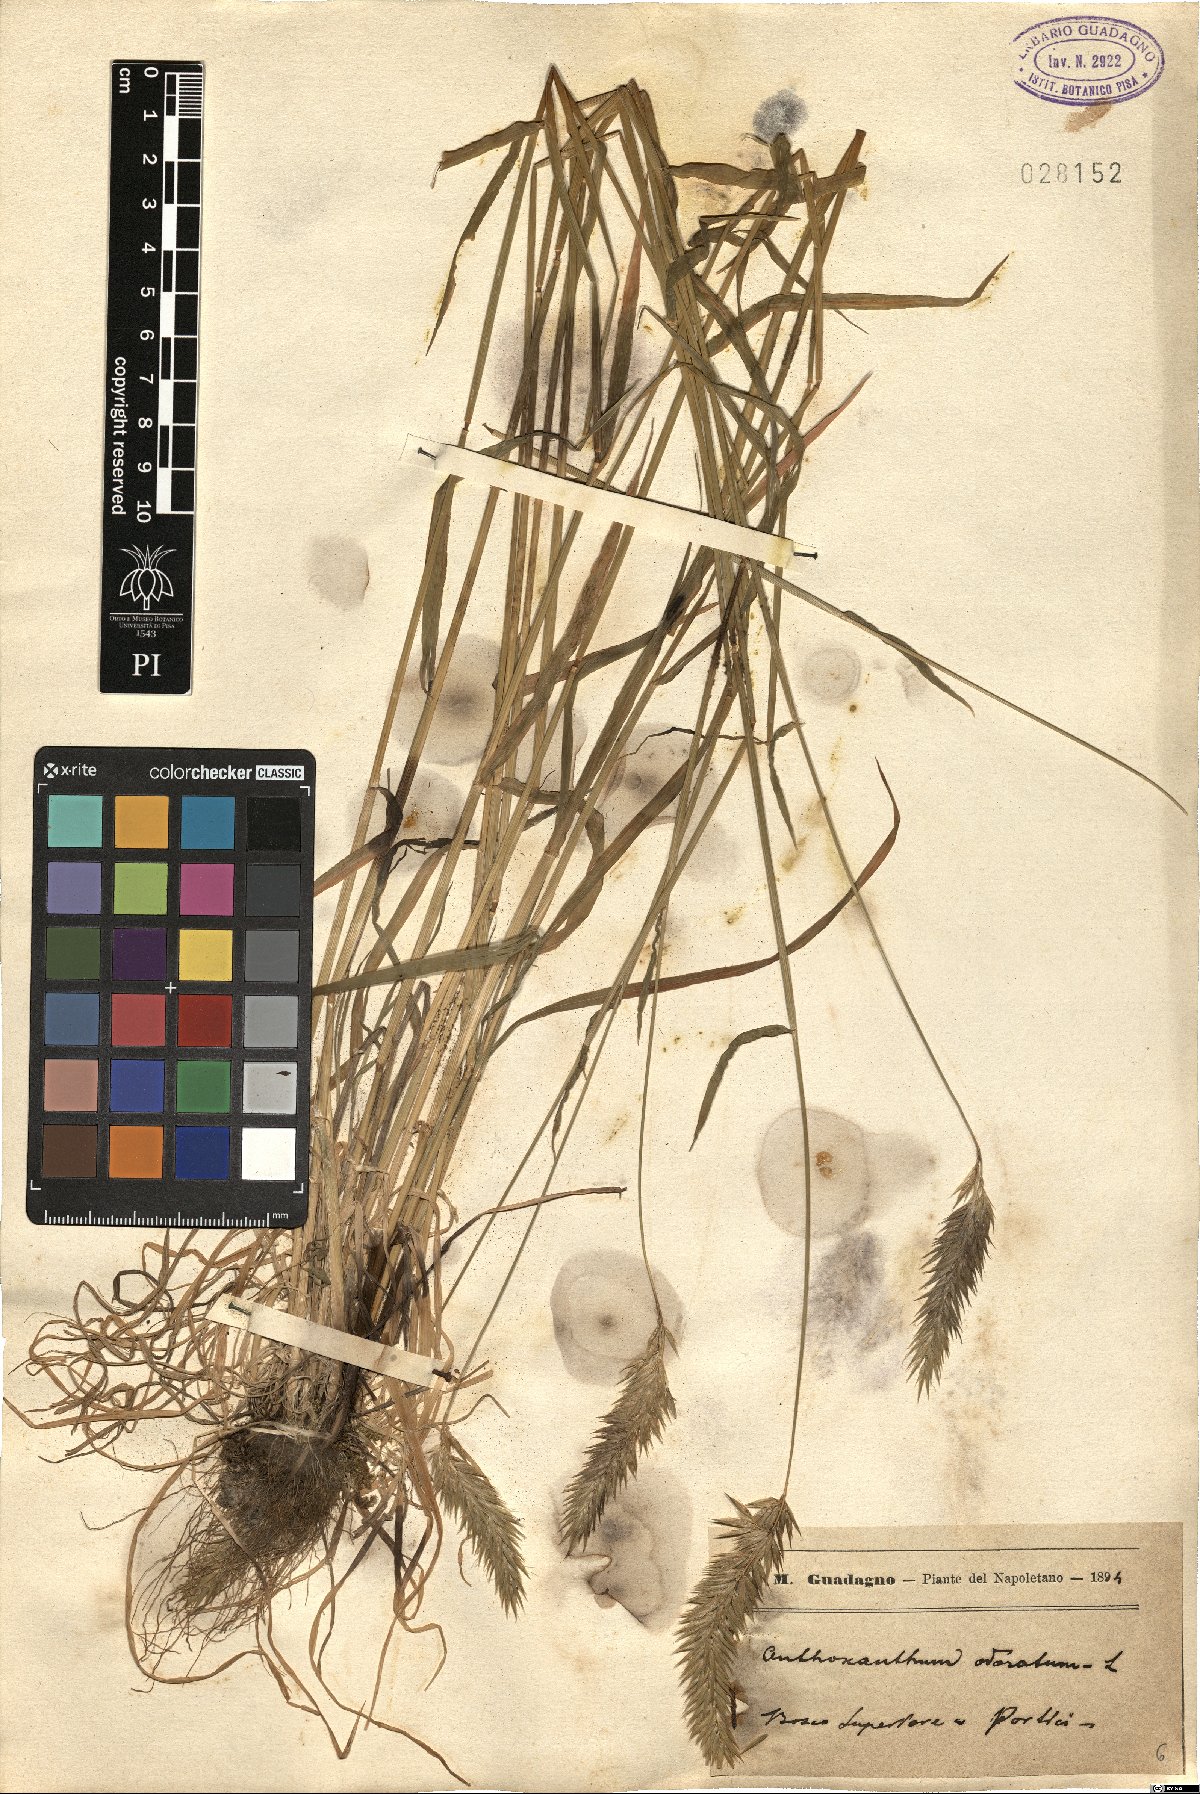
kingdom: Plantae
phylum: Tracheophyta
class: Liliopsida
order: Poales
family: Poaceae
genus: Anthoxanthum
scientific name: Anthoxanthum odoratum
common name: Sweet vernalgrass
